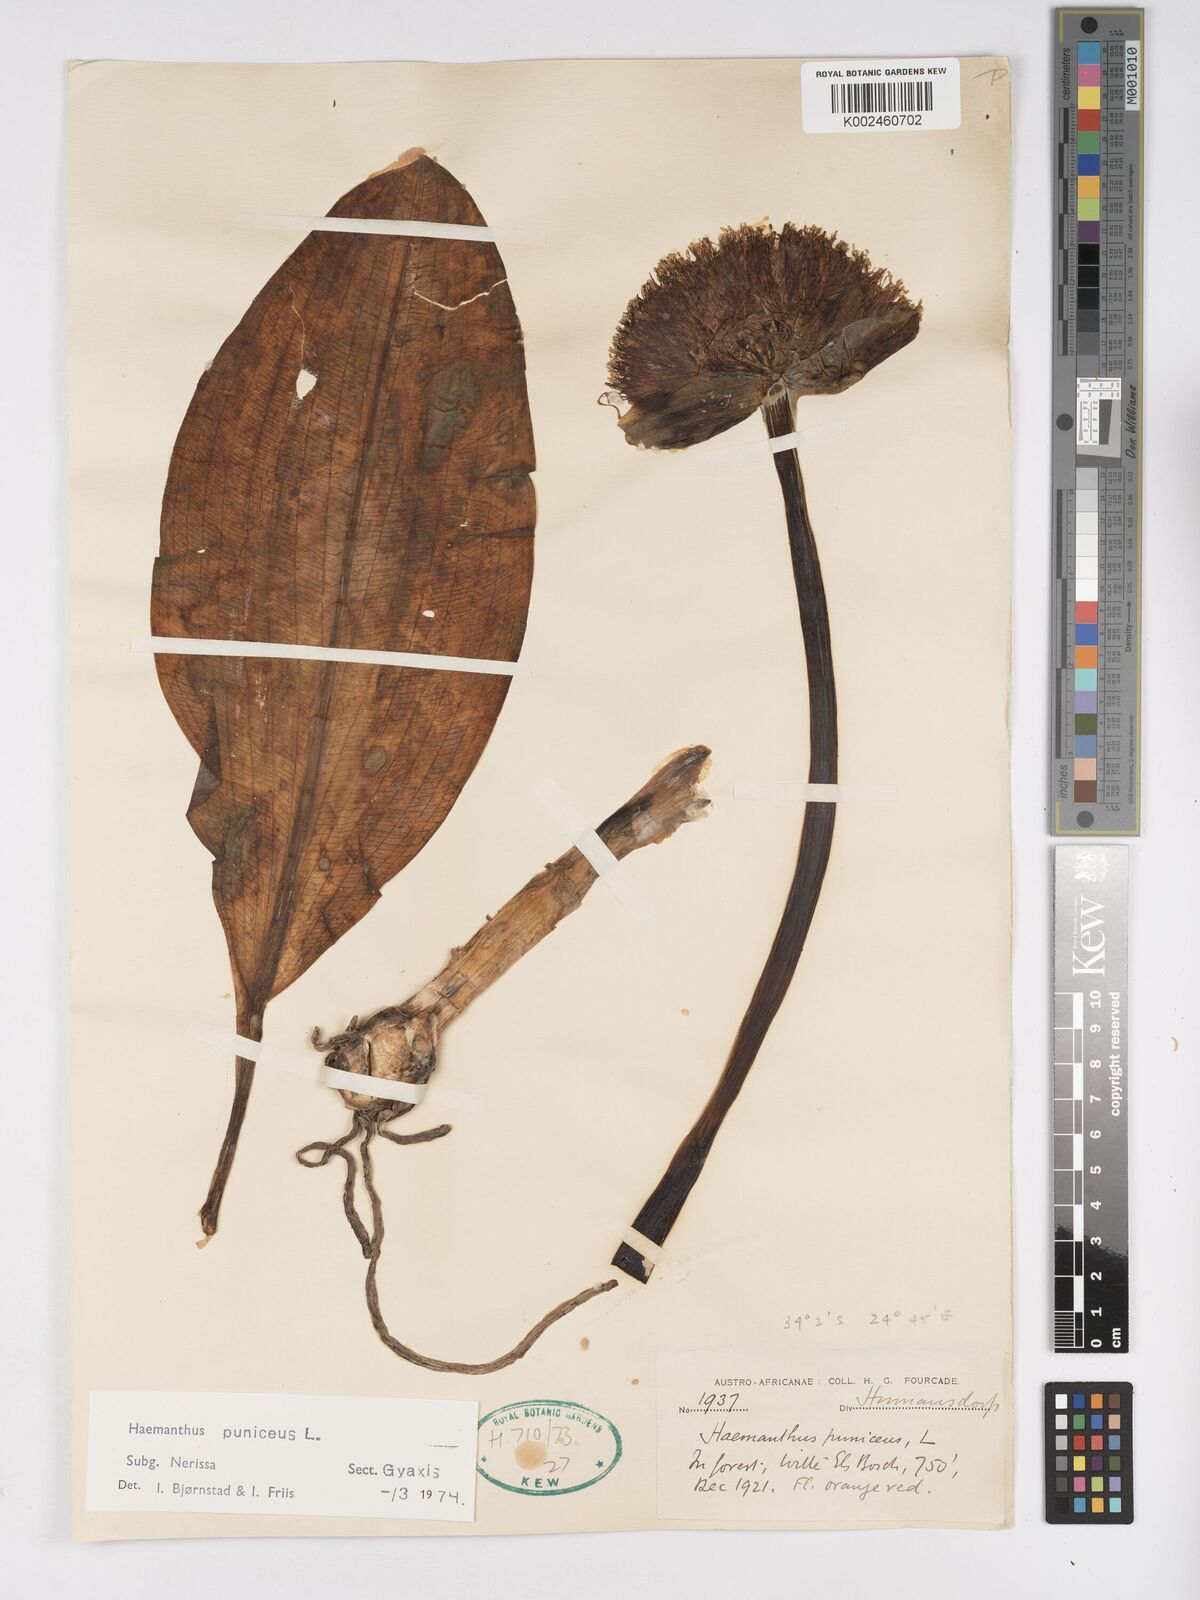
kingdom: Plantae
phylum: Tracheophyta
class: Liliopsida
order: Asparagales
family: Amaryllidaceae
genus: Scadoxus
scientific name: Scadoxus puniceus
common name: Royal-paintbrush
